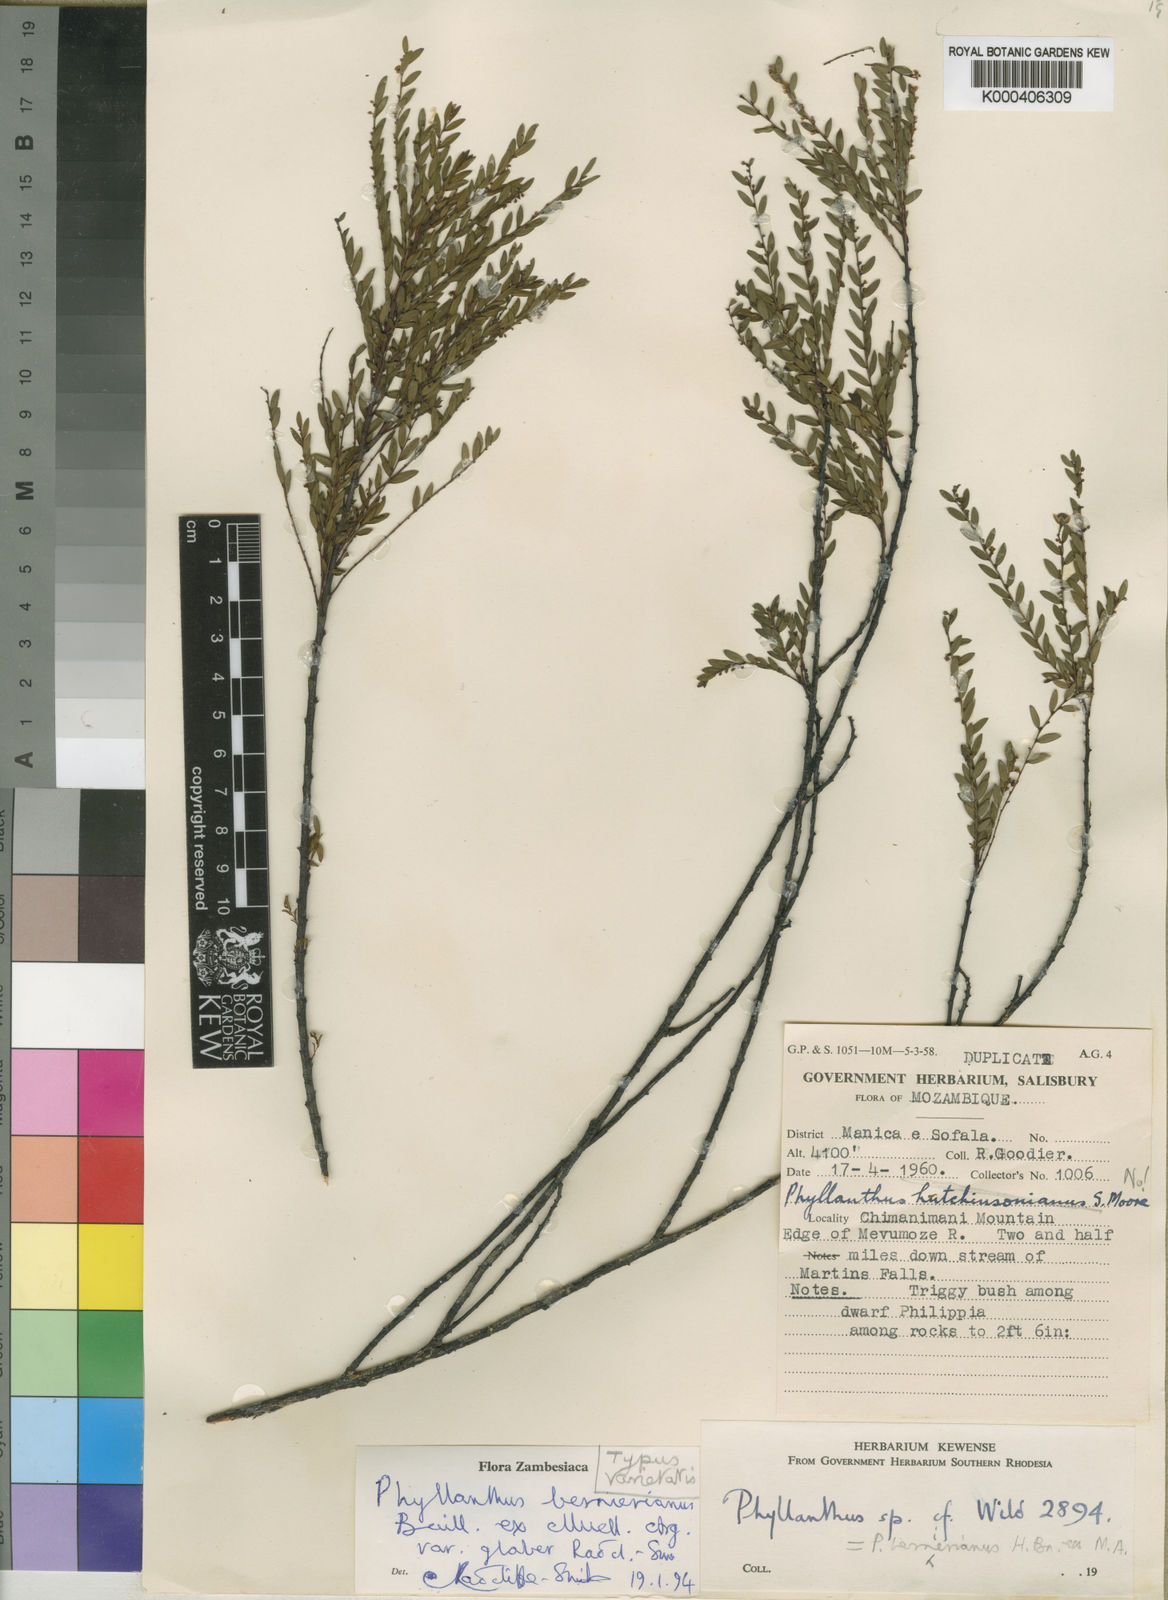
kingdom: Plantae
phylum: Tracheophyta
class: Magnoliopsida
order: Malpighiales
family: Phyllanthaceae
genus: Phyllanthus
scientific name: Phyllanthus
